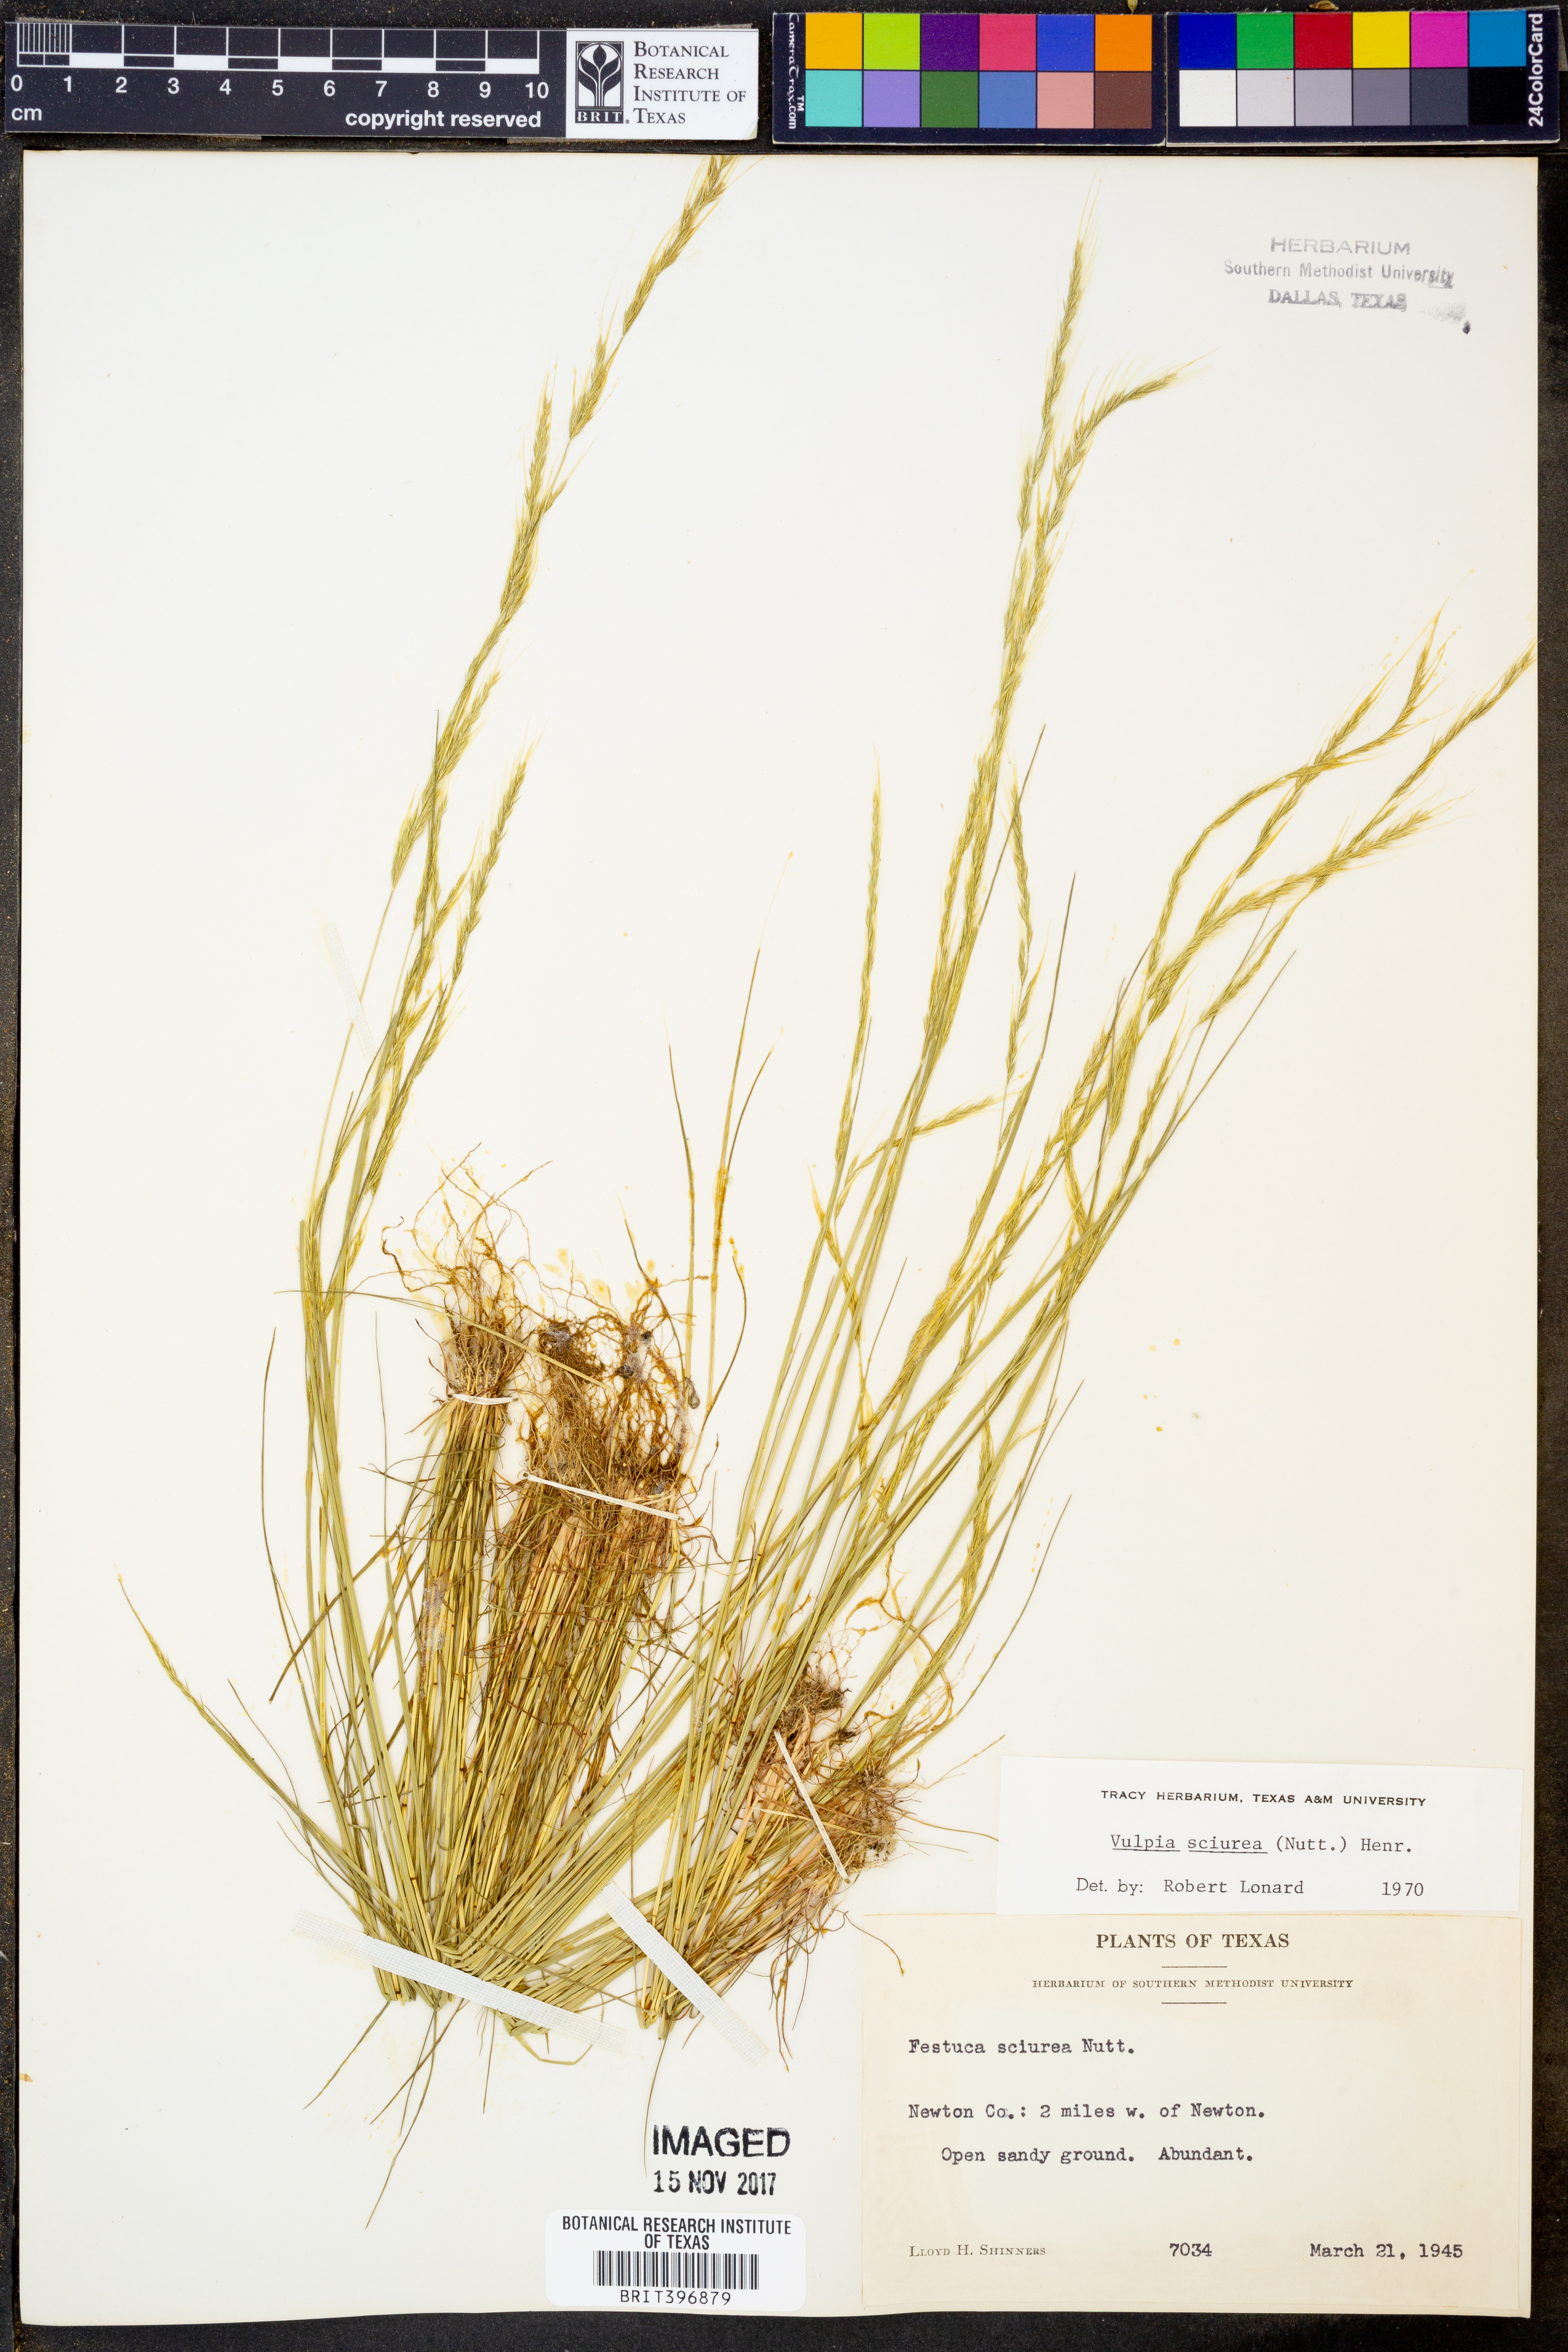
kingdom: Plantae
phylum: Tracheophyta
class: Liliopsida
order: Poales
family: Poaceae
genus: Festuca
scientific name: Festuca sciurea
